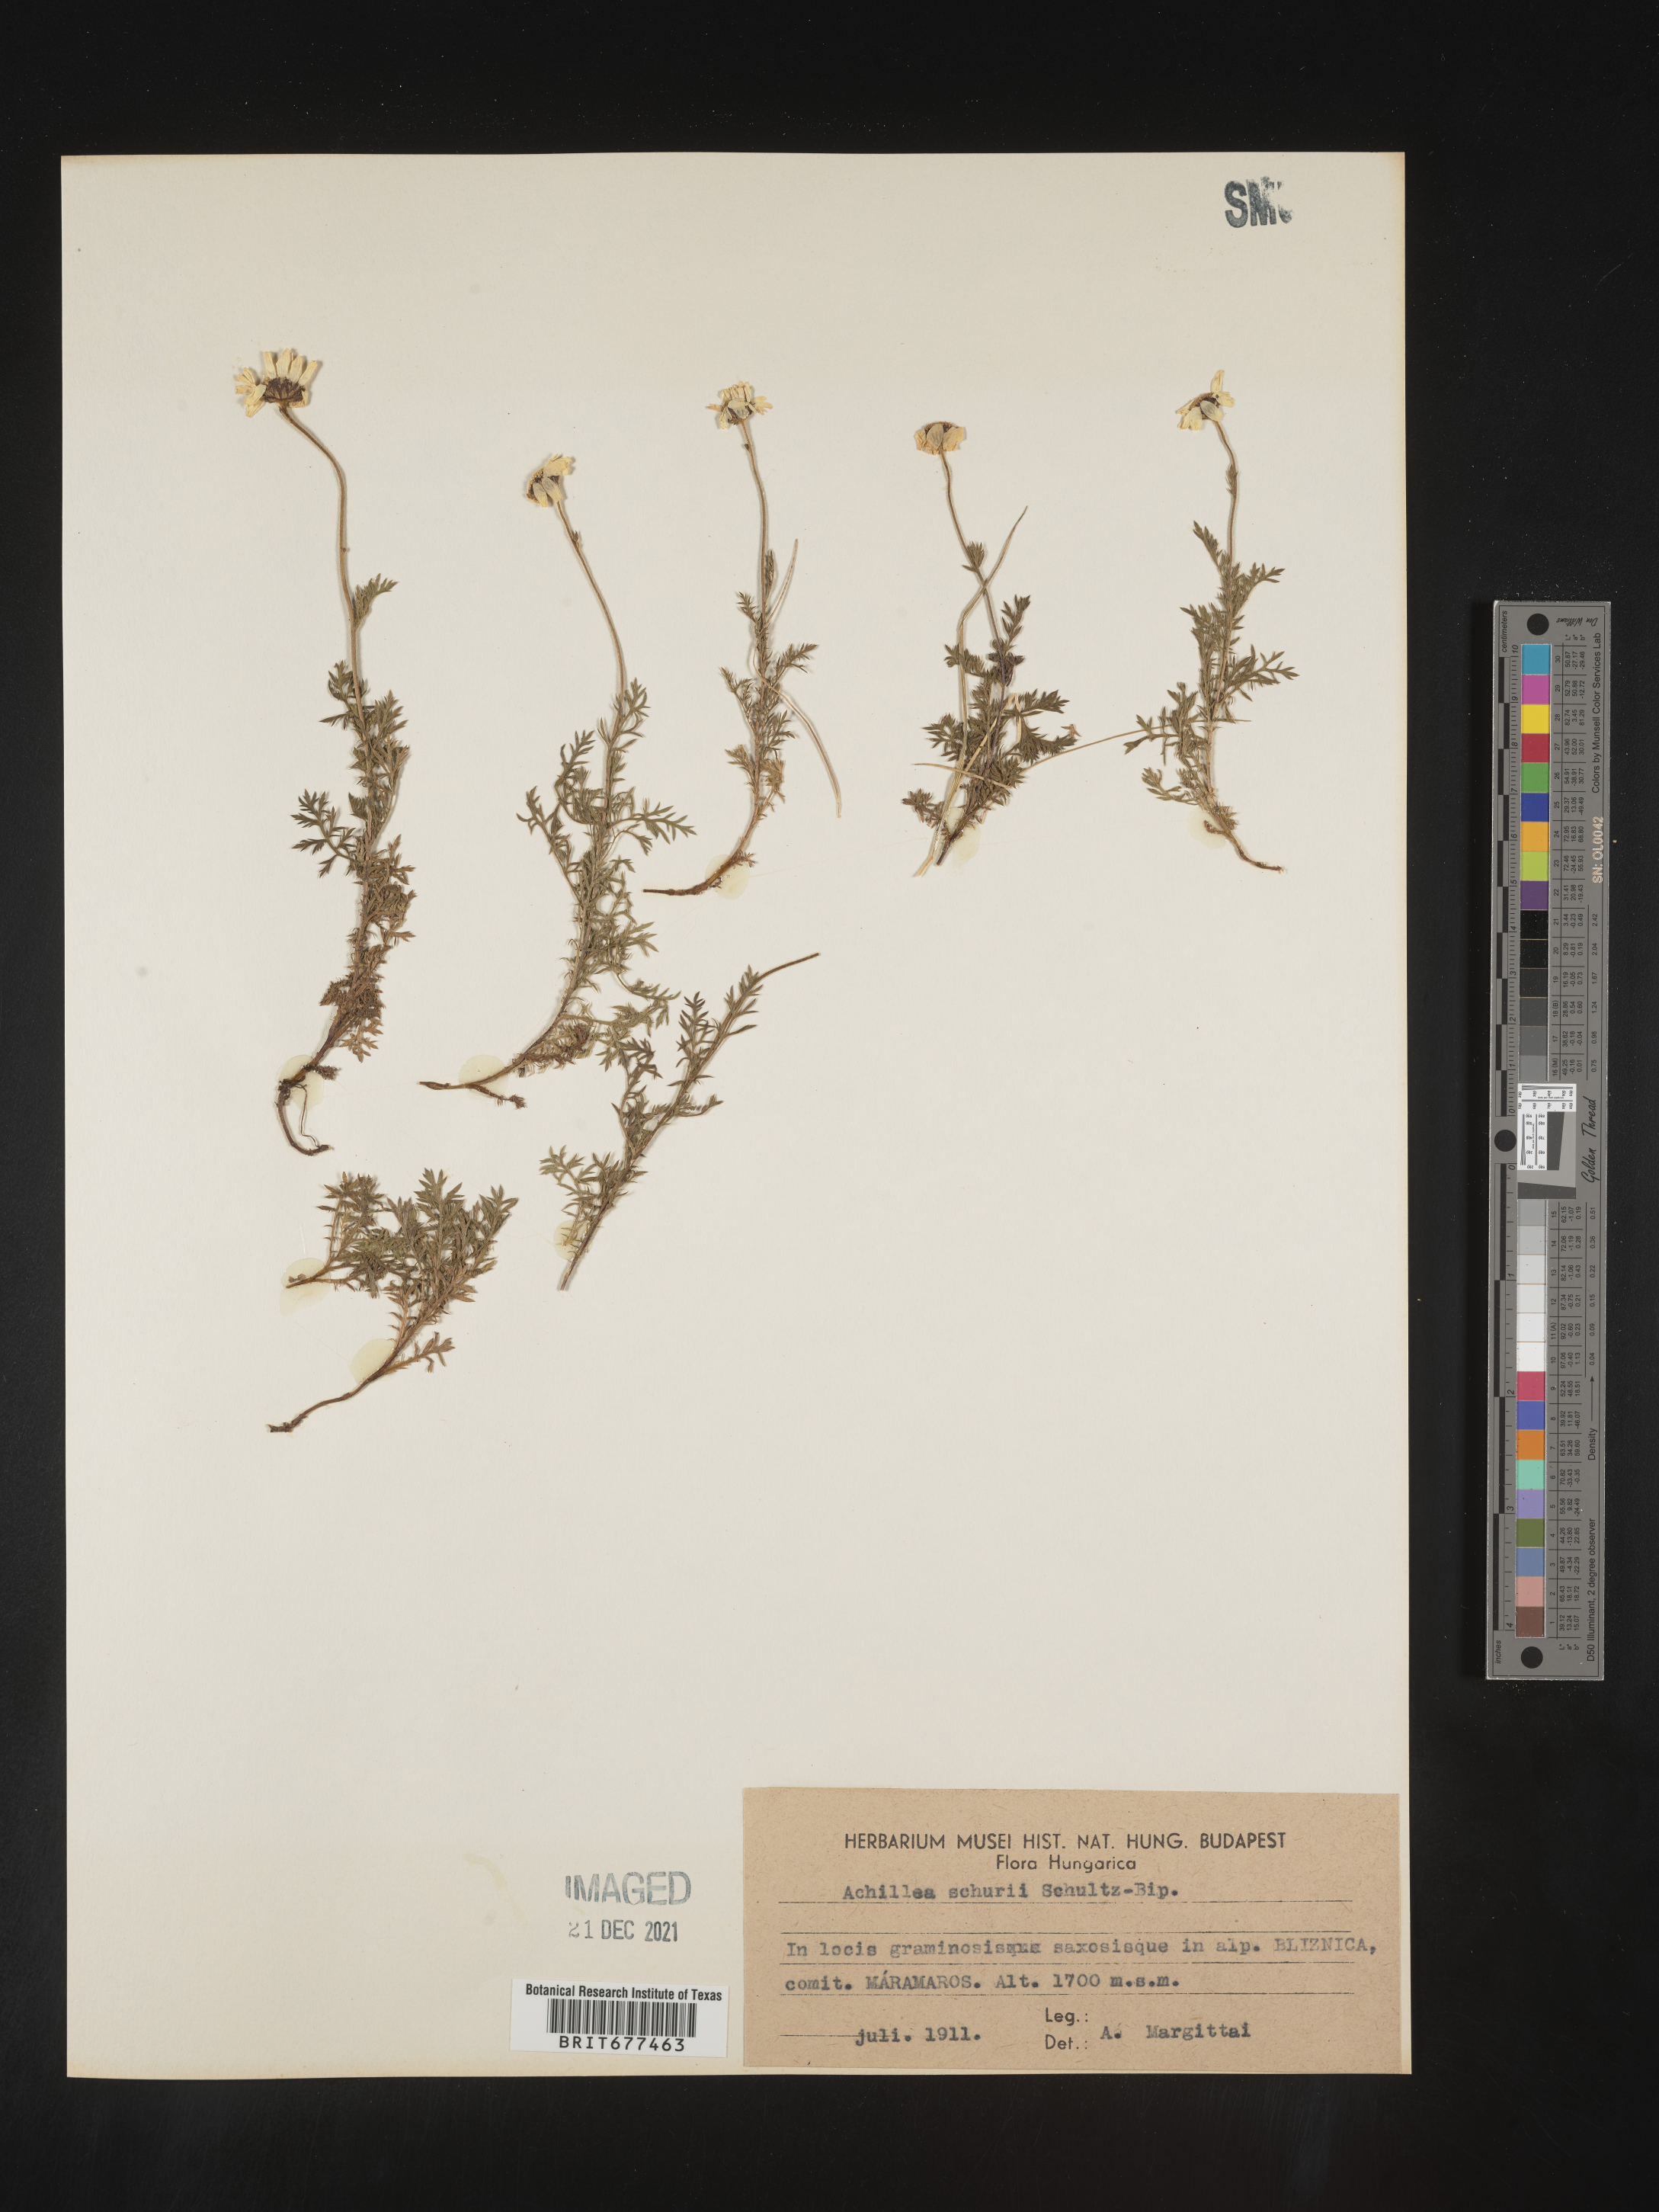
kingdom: Plantae
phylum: Tracheophyta
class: Magnoliopsida
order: Asterales
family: Asteraceae
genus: Achillea
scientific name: Achillea
